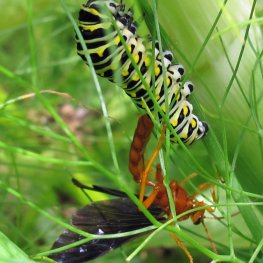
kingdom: Animalia
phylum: Arthropoda
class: Insecta
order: Lepidoptera
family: Papilionidae
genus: Papilio
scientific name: Papilio polyxenes
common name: Black Swallowtail
